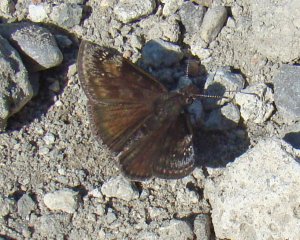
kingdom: Animalia
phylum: Arthropoda
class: Insecta
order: Lepidoptera
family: Hesperiidae
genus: Gesta
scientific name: Gesta
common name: Wild Indigo Duskywing
